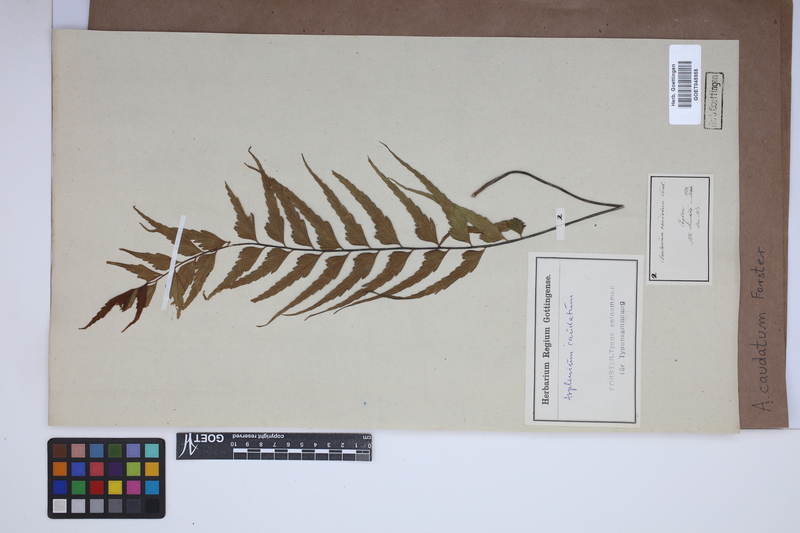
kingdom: Plantae
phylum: Tracheophyta
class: Polypodiopsida
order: Polypodiales
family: Aspleniaceae
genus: Asplenium
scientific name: Asplenium caudatum
